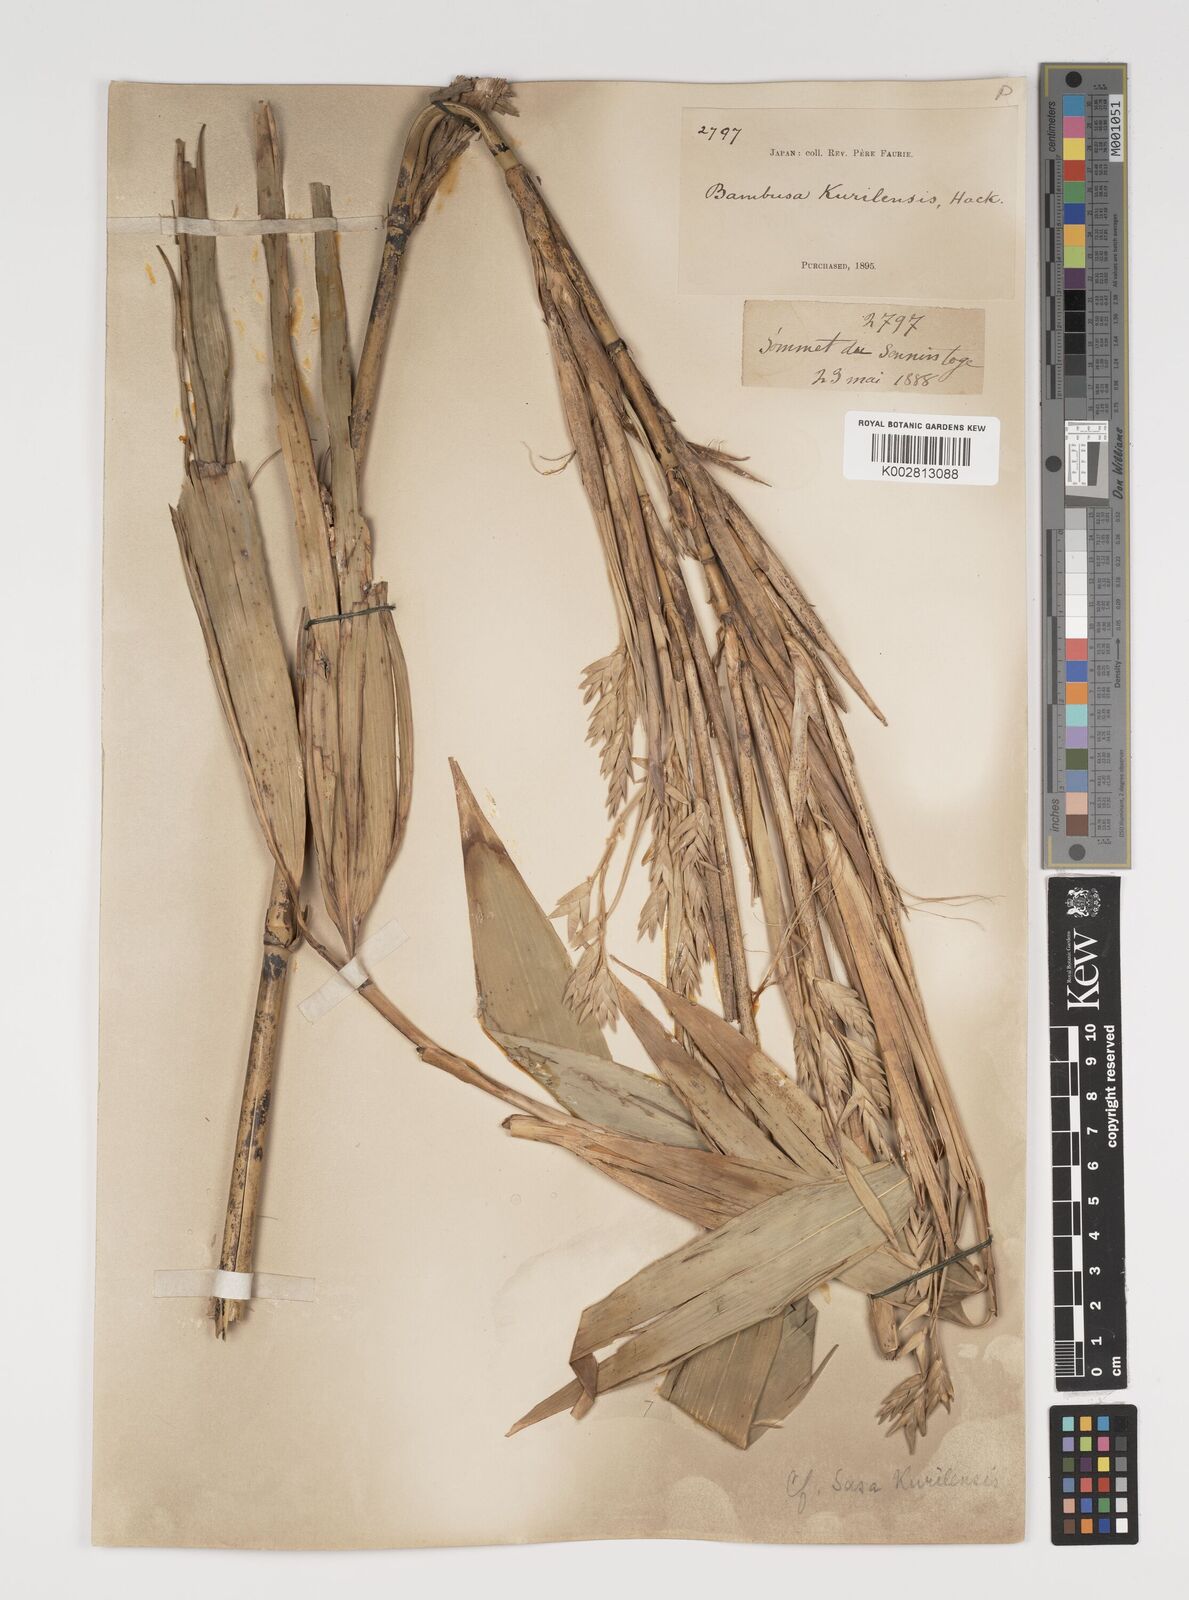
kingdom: Plantae
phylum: Tracheophyta
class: Liliopsida
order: Poales
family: Poaceae
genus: Sasa
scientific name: Sasa kurilensis
